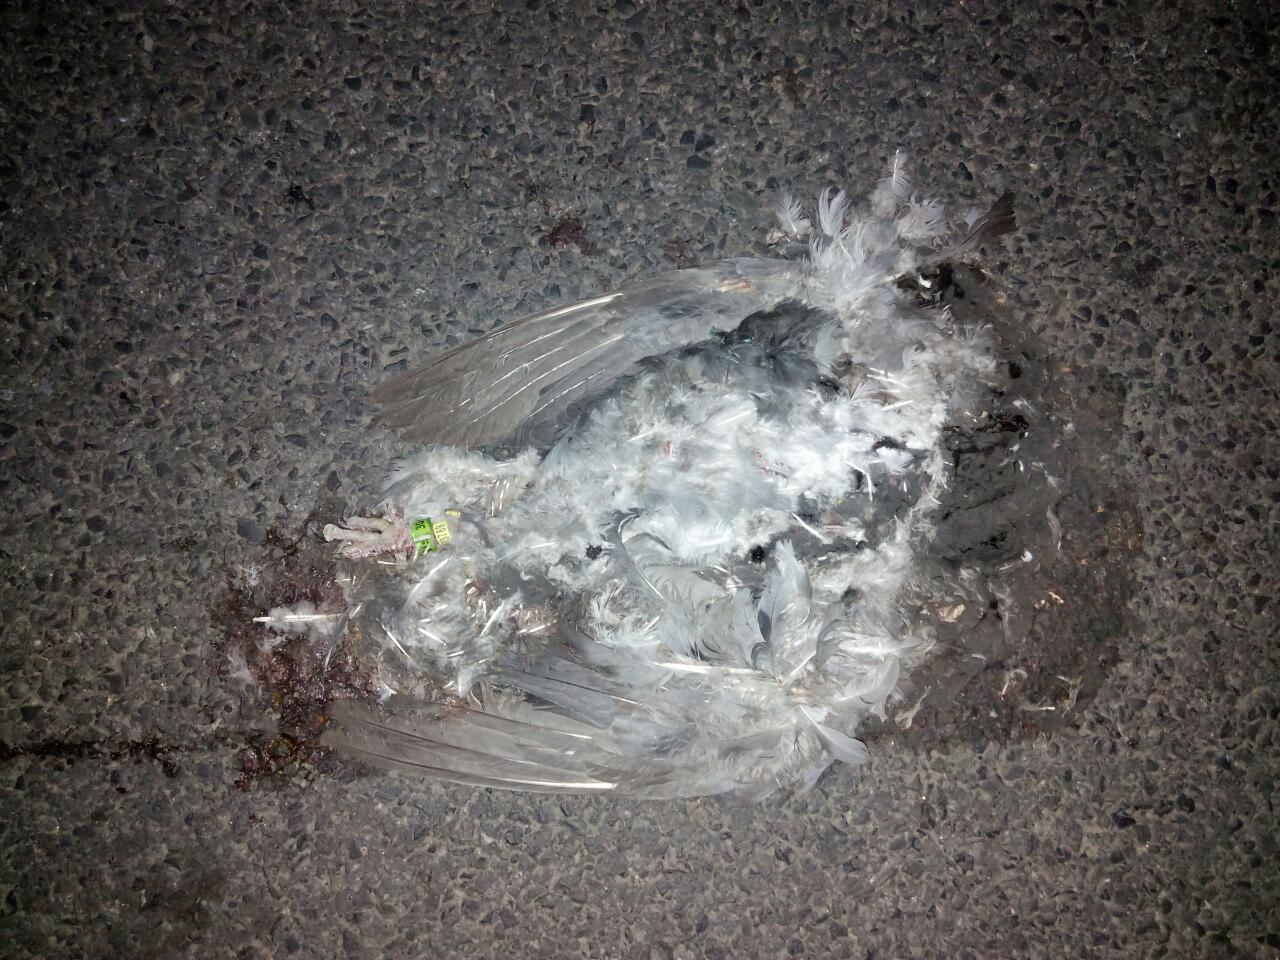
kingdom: Animalia
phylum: Chordata
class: Aves
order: Columbiformes
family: Columbidae
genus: Columba
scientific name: Columba livia
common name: Rock pigeon
